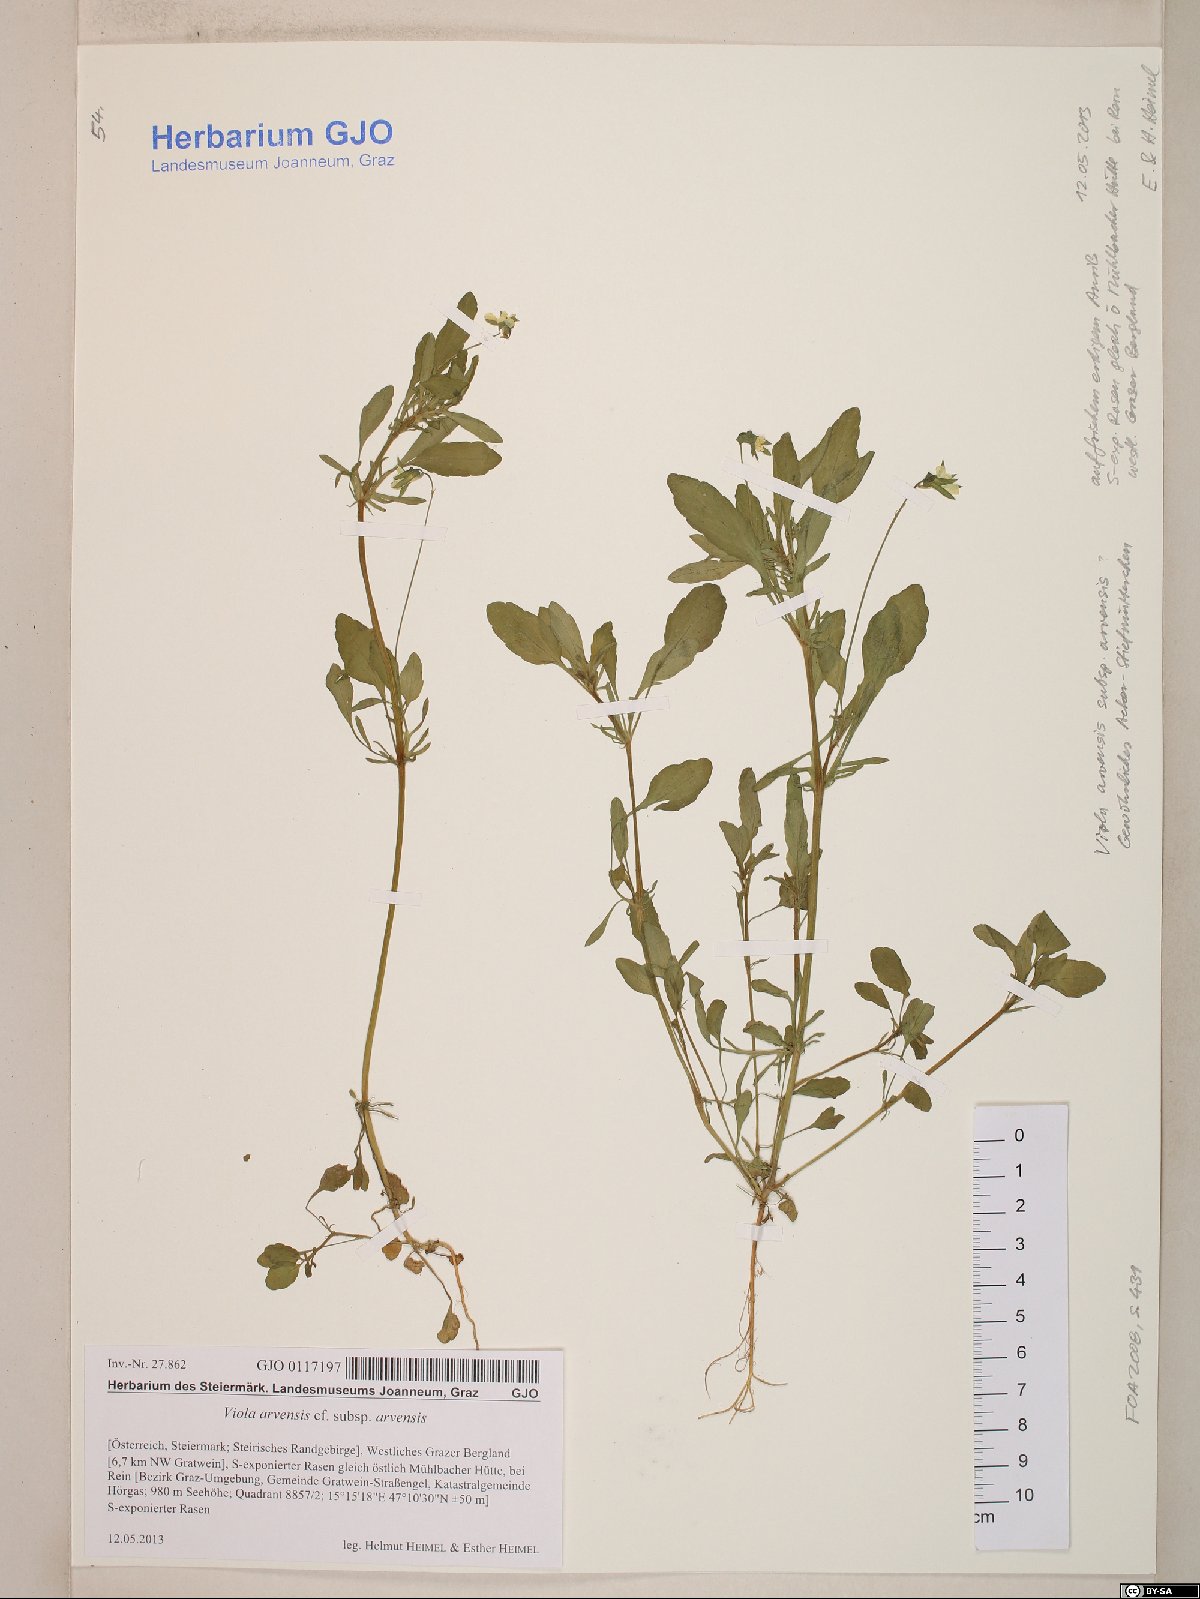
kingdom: Plantae
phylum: Tracheophyta
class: Magnoliopsida
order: Malpighiales
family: Violaceae
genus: Viola
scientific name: Viola arvensis
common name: Field pansy
